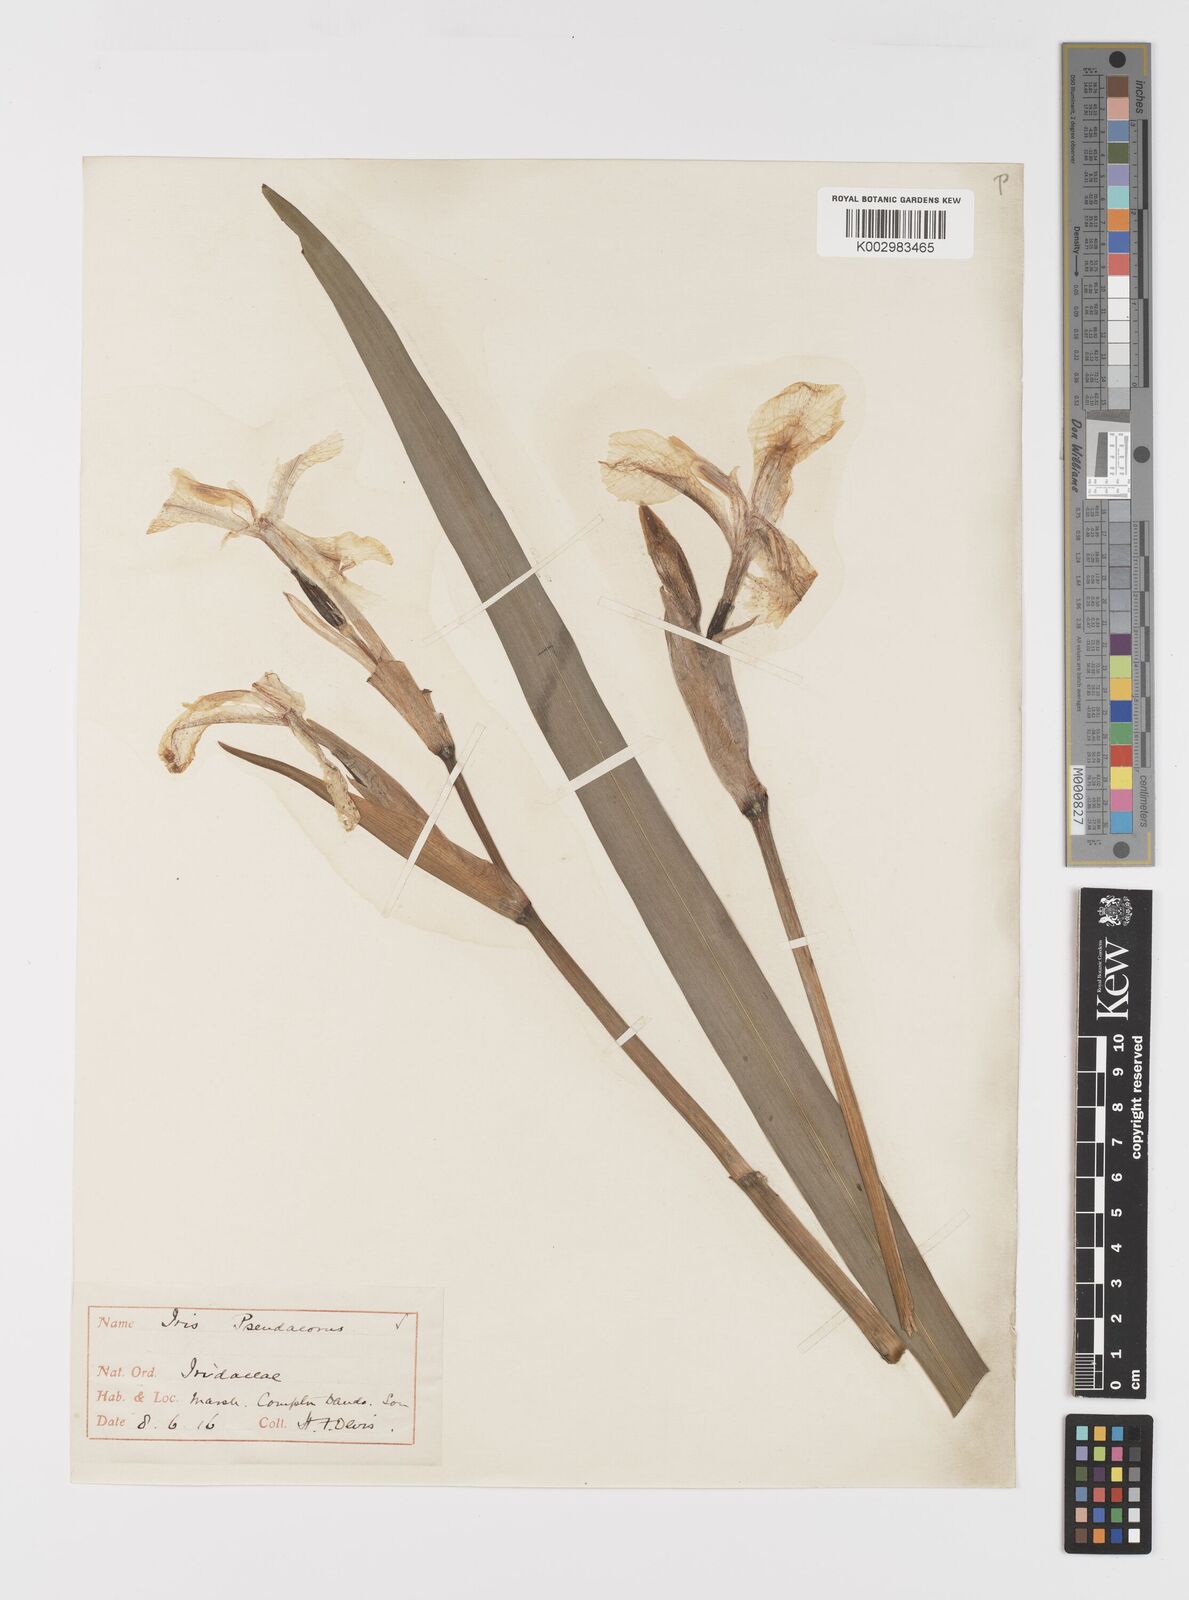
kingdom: Plantae
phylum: Tracheophyta
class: Liliopsida
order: Asparagales
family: Iridaceae
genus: Iris
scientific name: Iris pseudacorus
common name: Yellow flag
